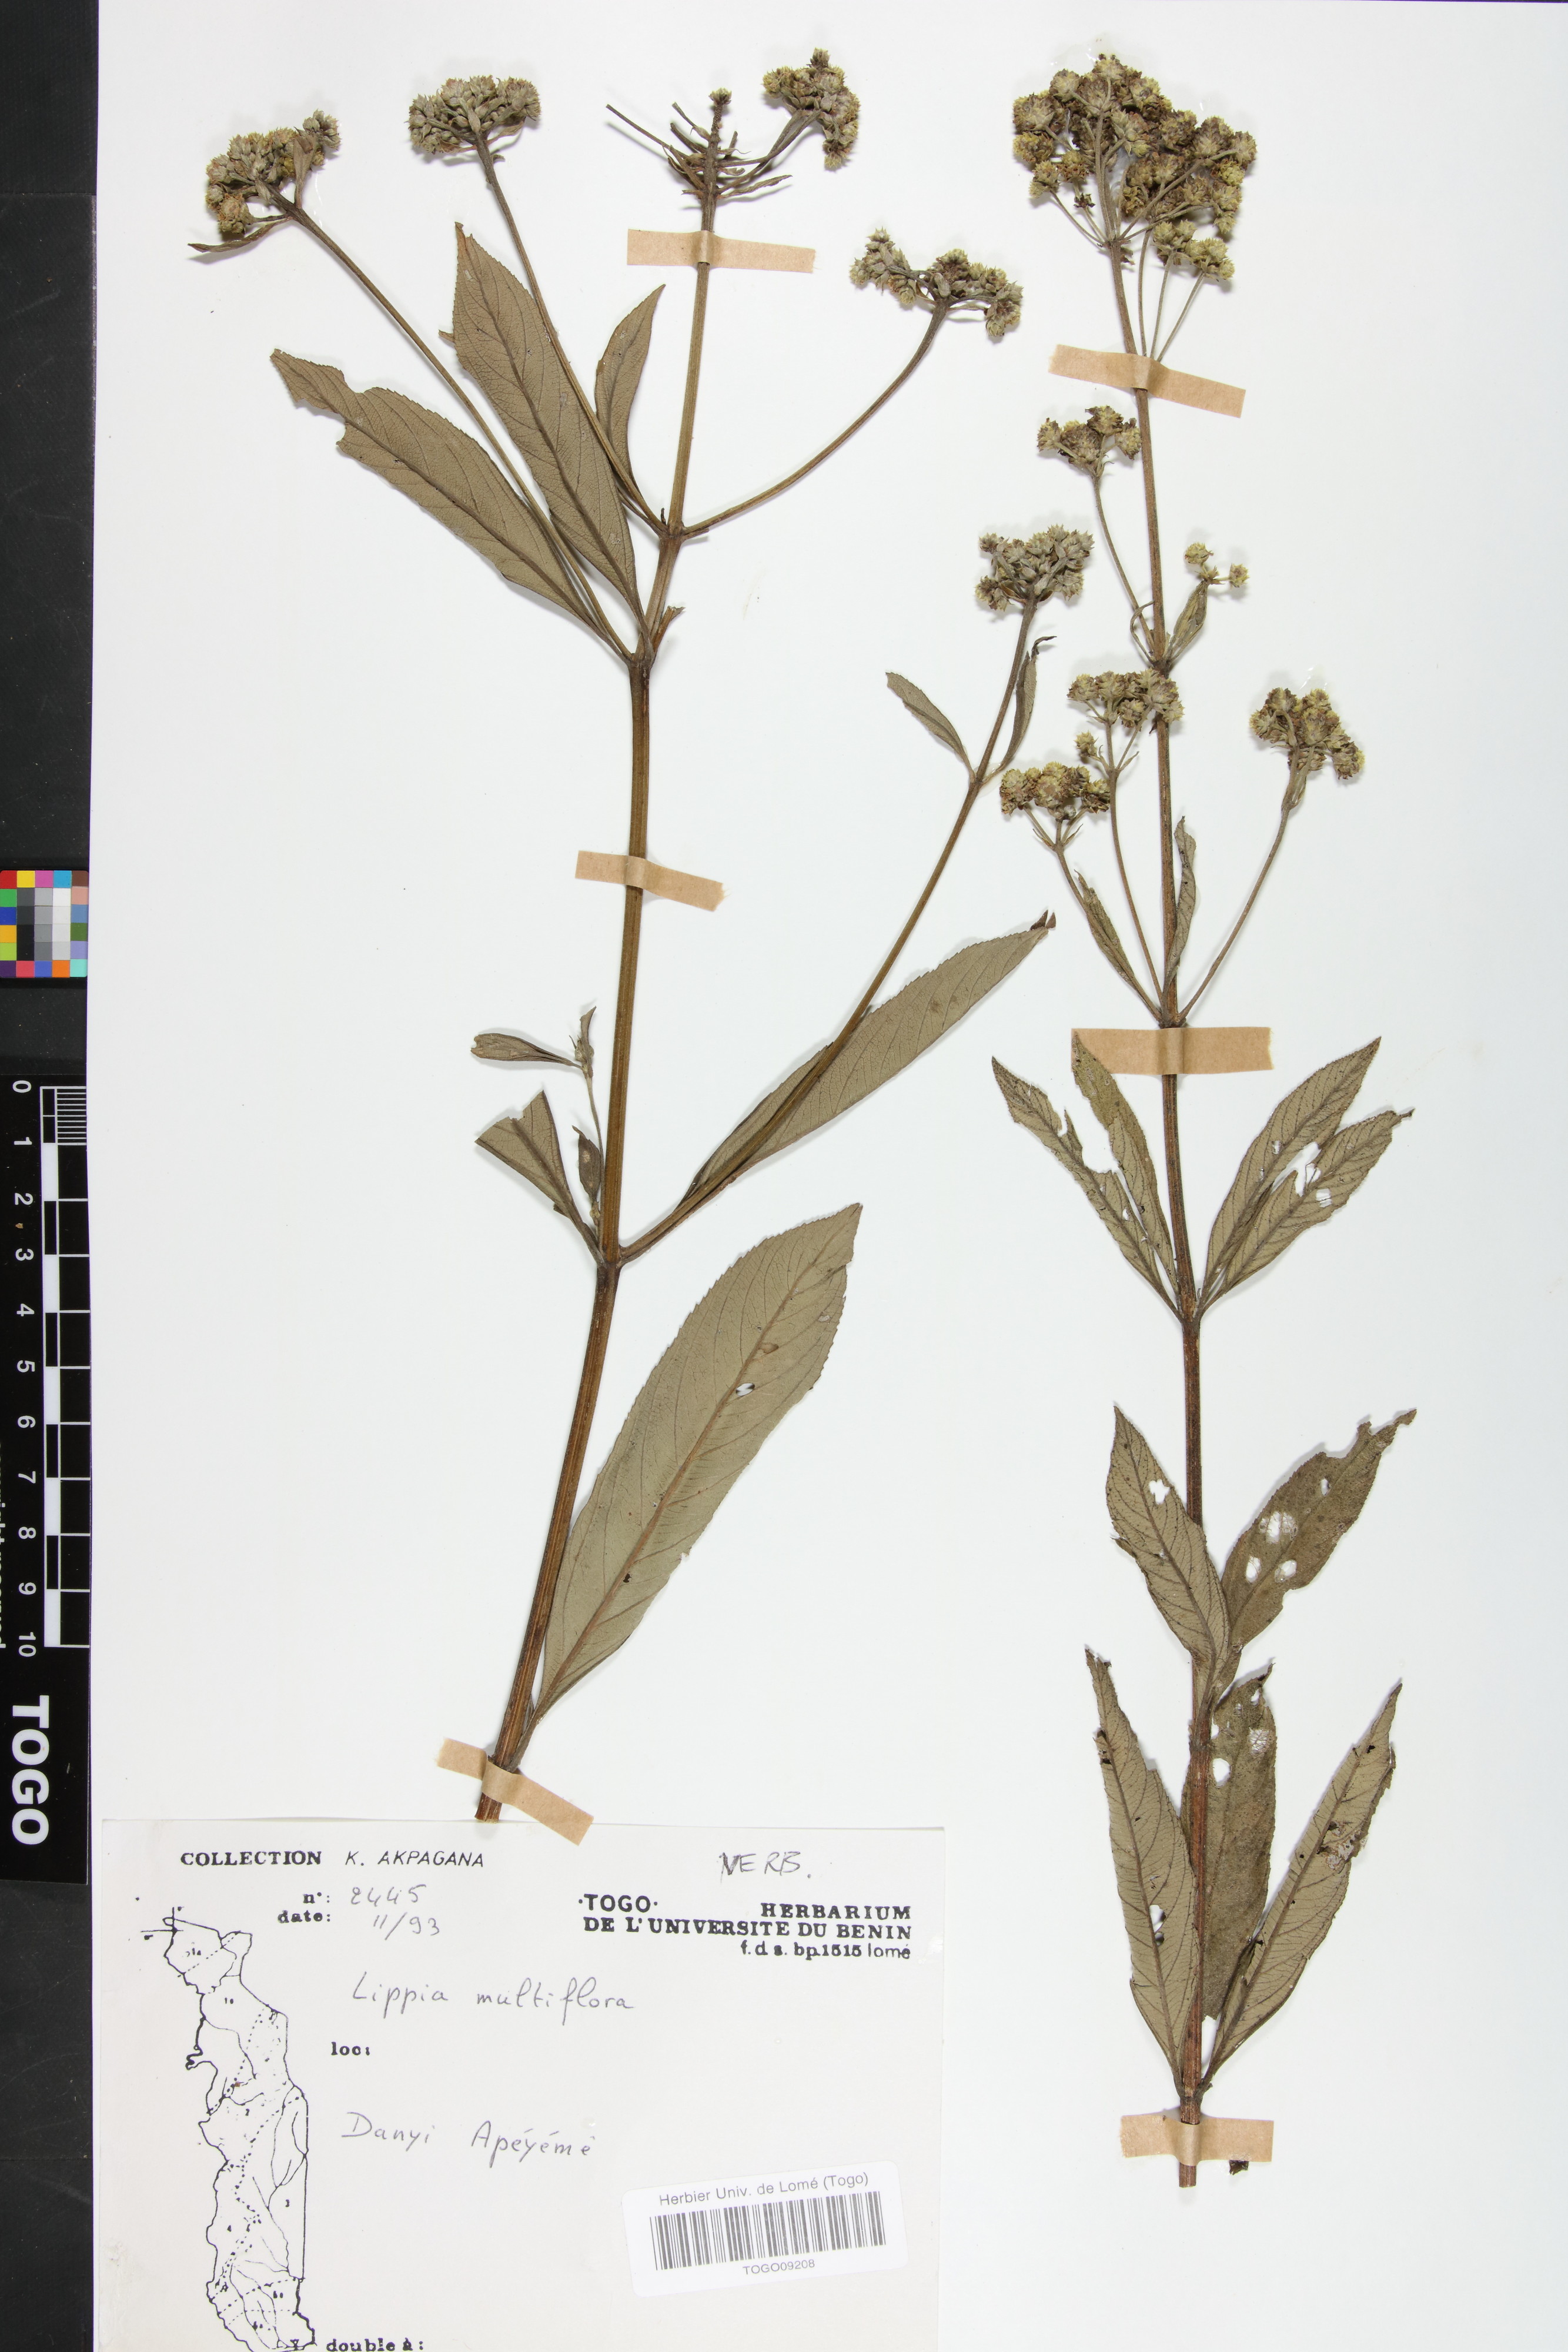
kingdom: Plantae
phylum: Tracheophyta
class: Magnoliopsida
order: Lamiales
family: Verbenaceae
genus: Lippia
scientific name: Lippia multiflora
